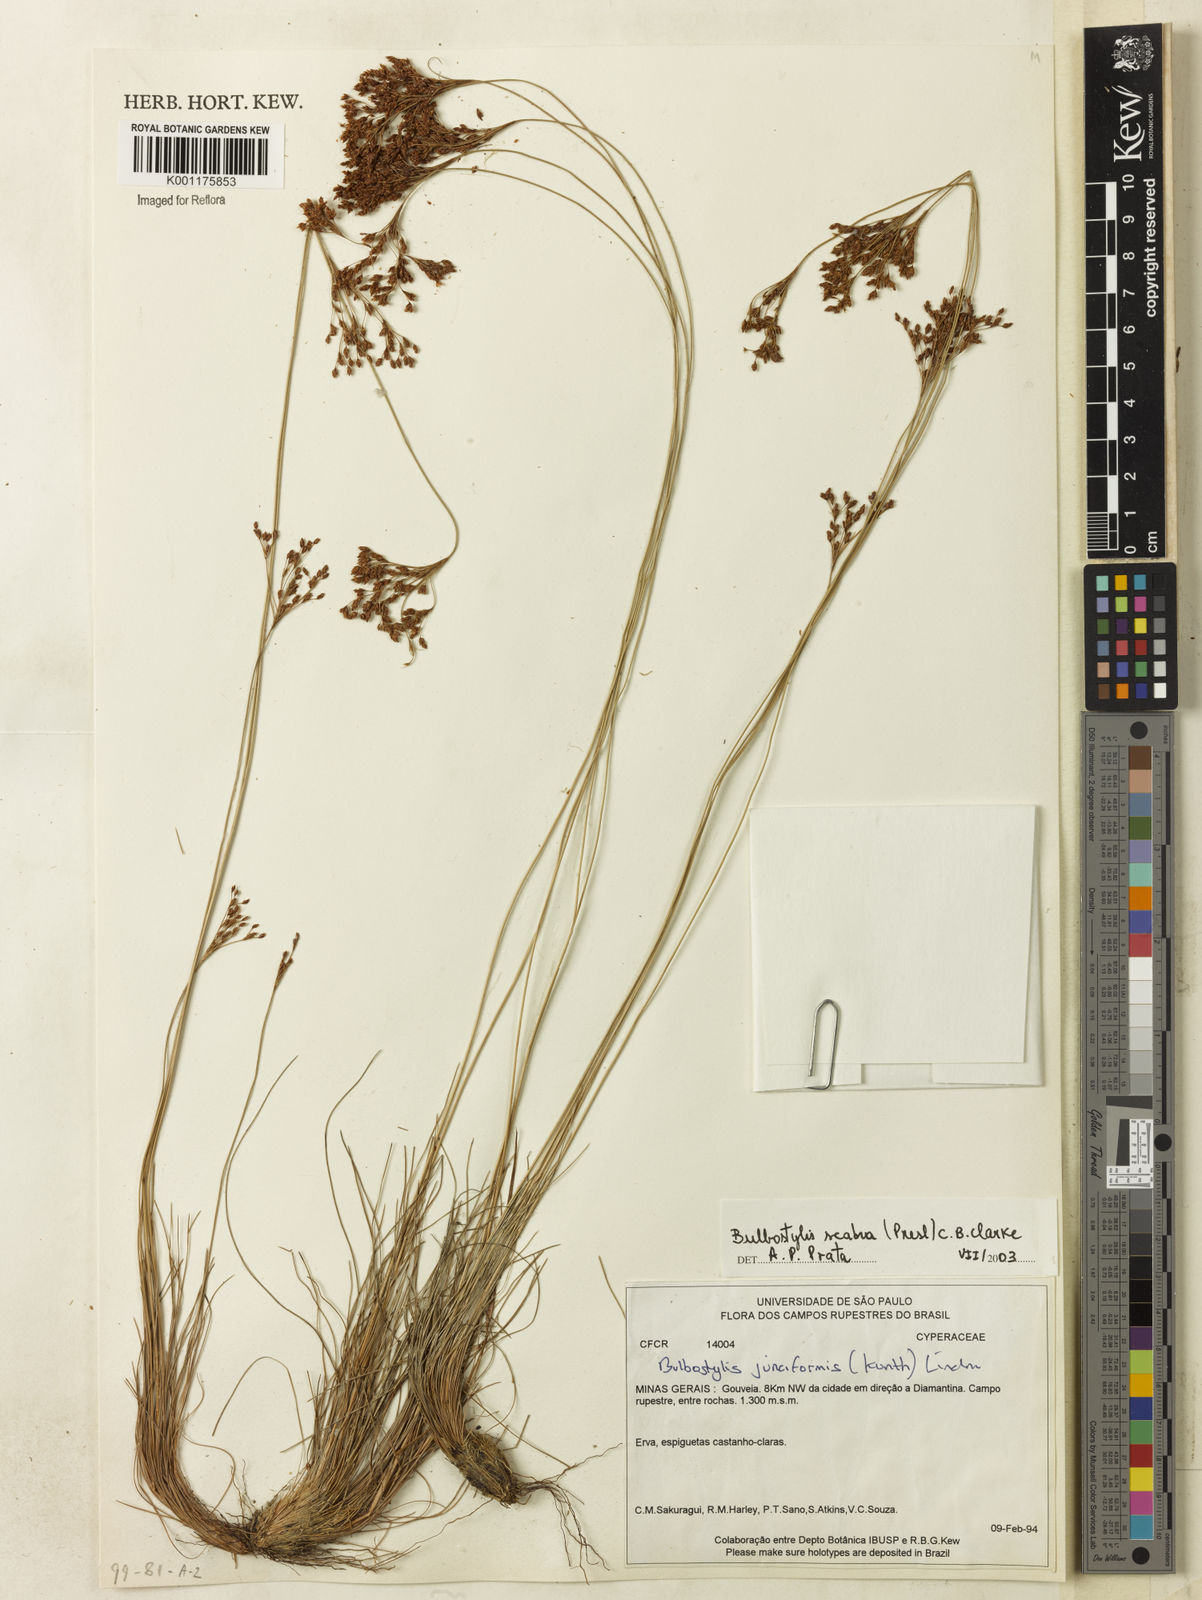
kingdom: Plantae
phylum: Tracheophyta
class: Liliopsida
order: Poales
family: Cyperaceae
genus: Bulbostylis
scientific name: Bulbostylis scabra
